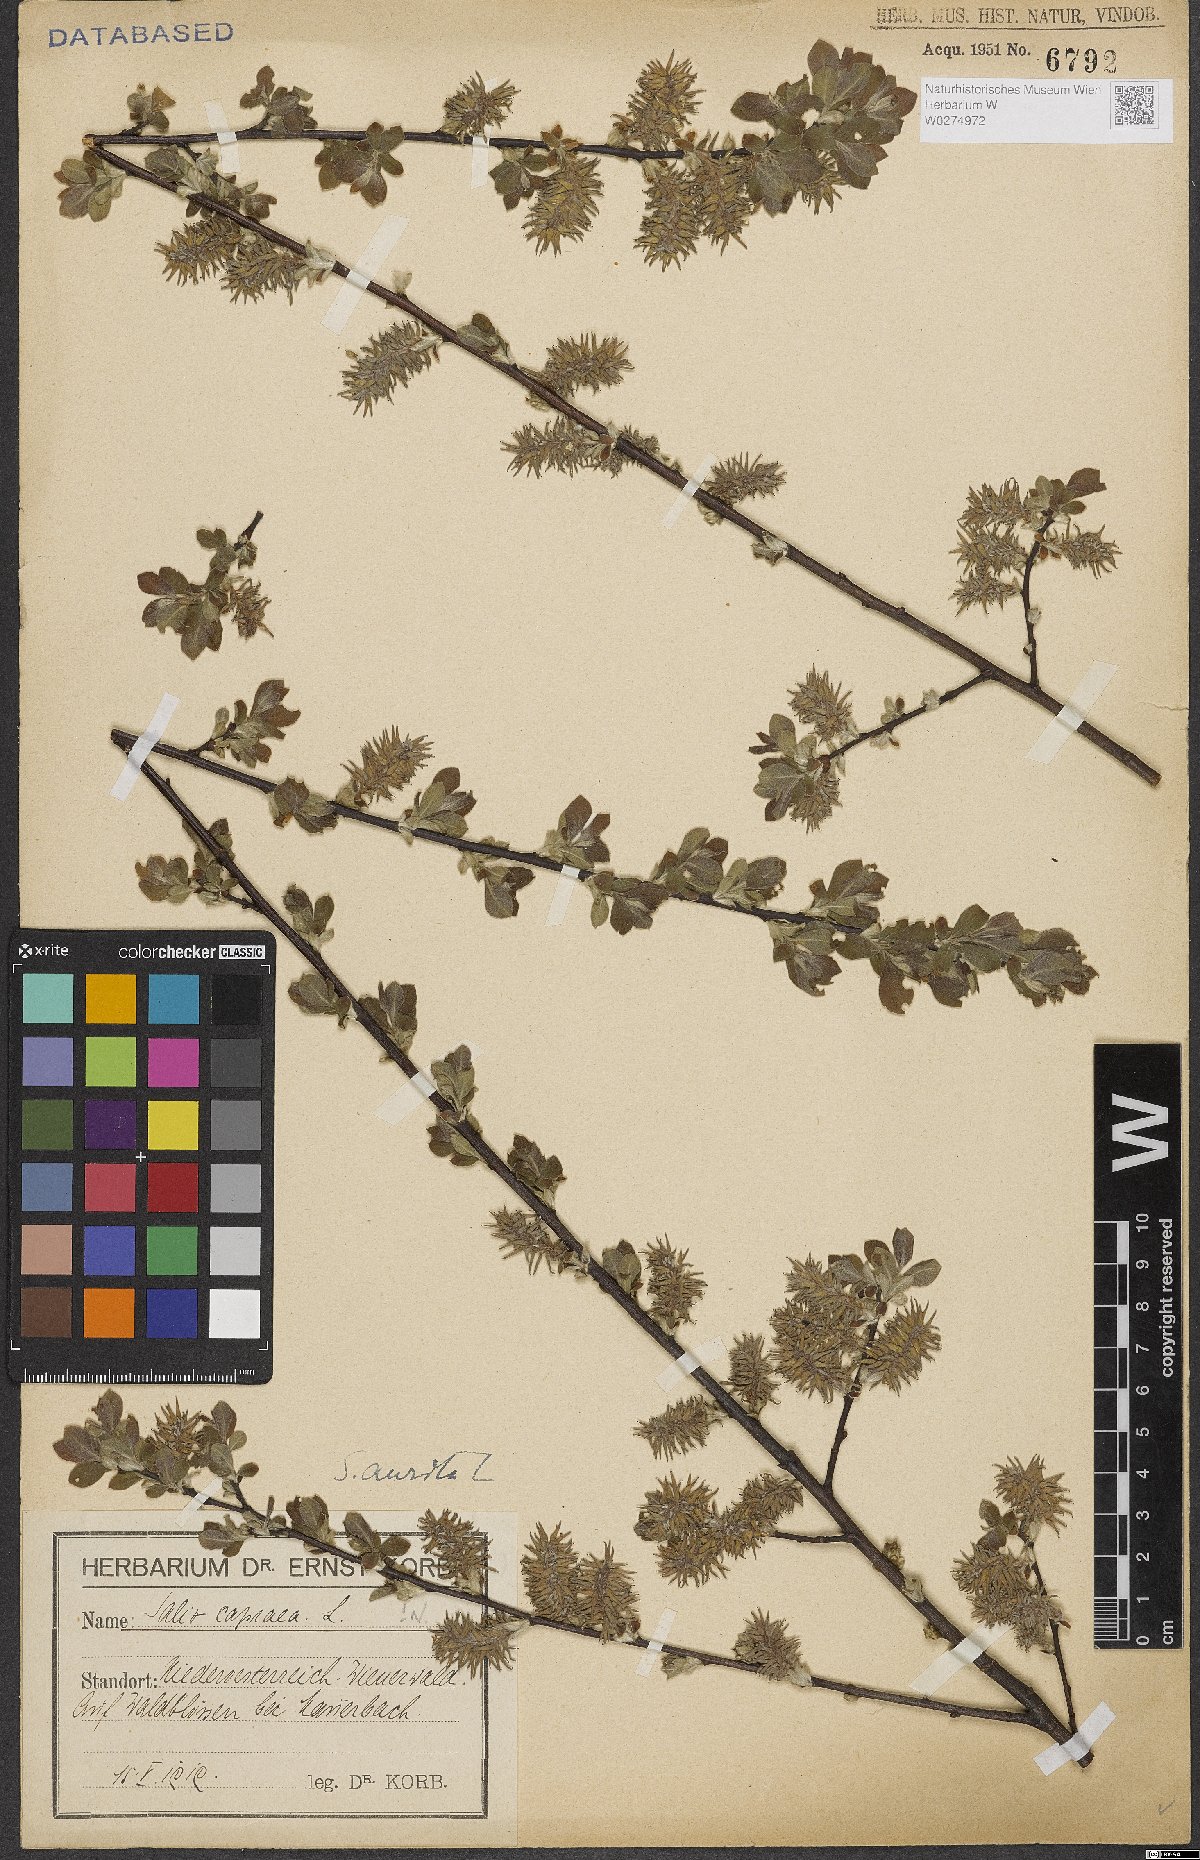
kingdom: Plantae
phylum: Tracheophyta
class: Magnoliopsida
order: Malpighiales
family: Salicaceae
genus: Salix
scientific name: Salix aurita
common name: Eared willow
